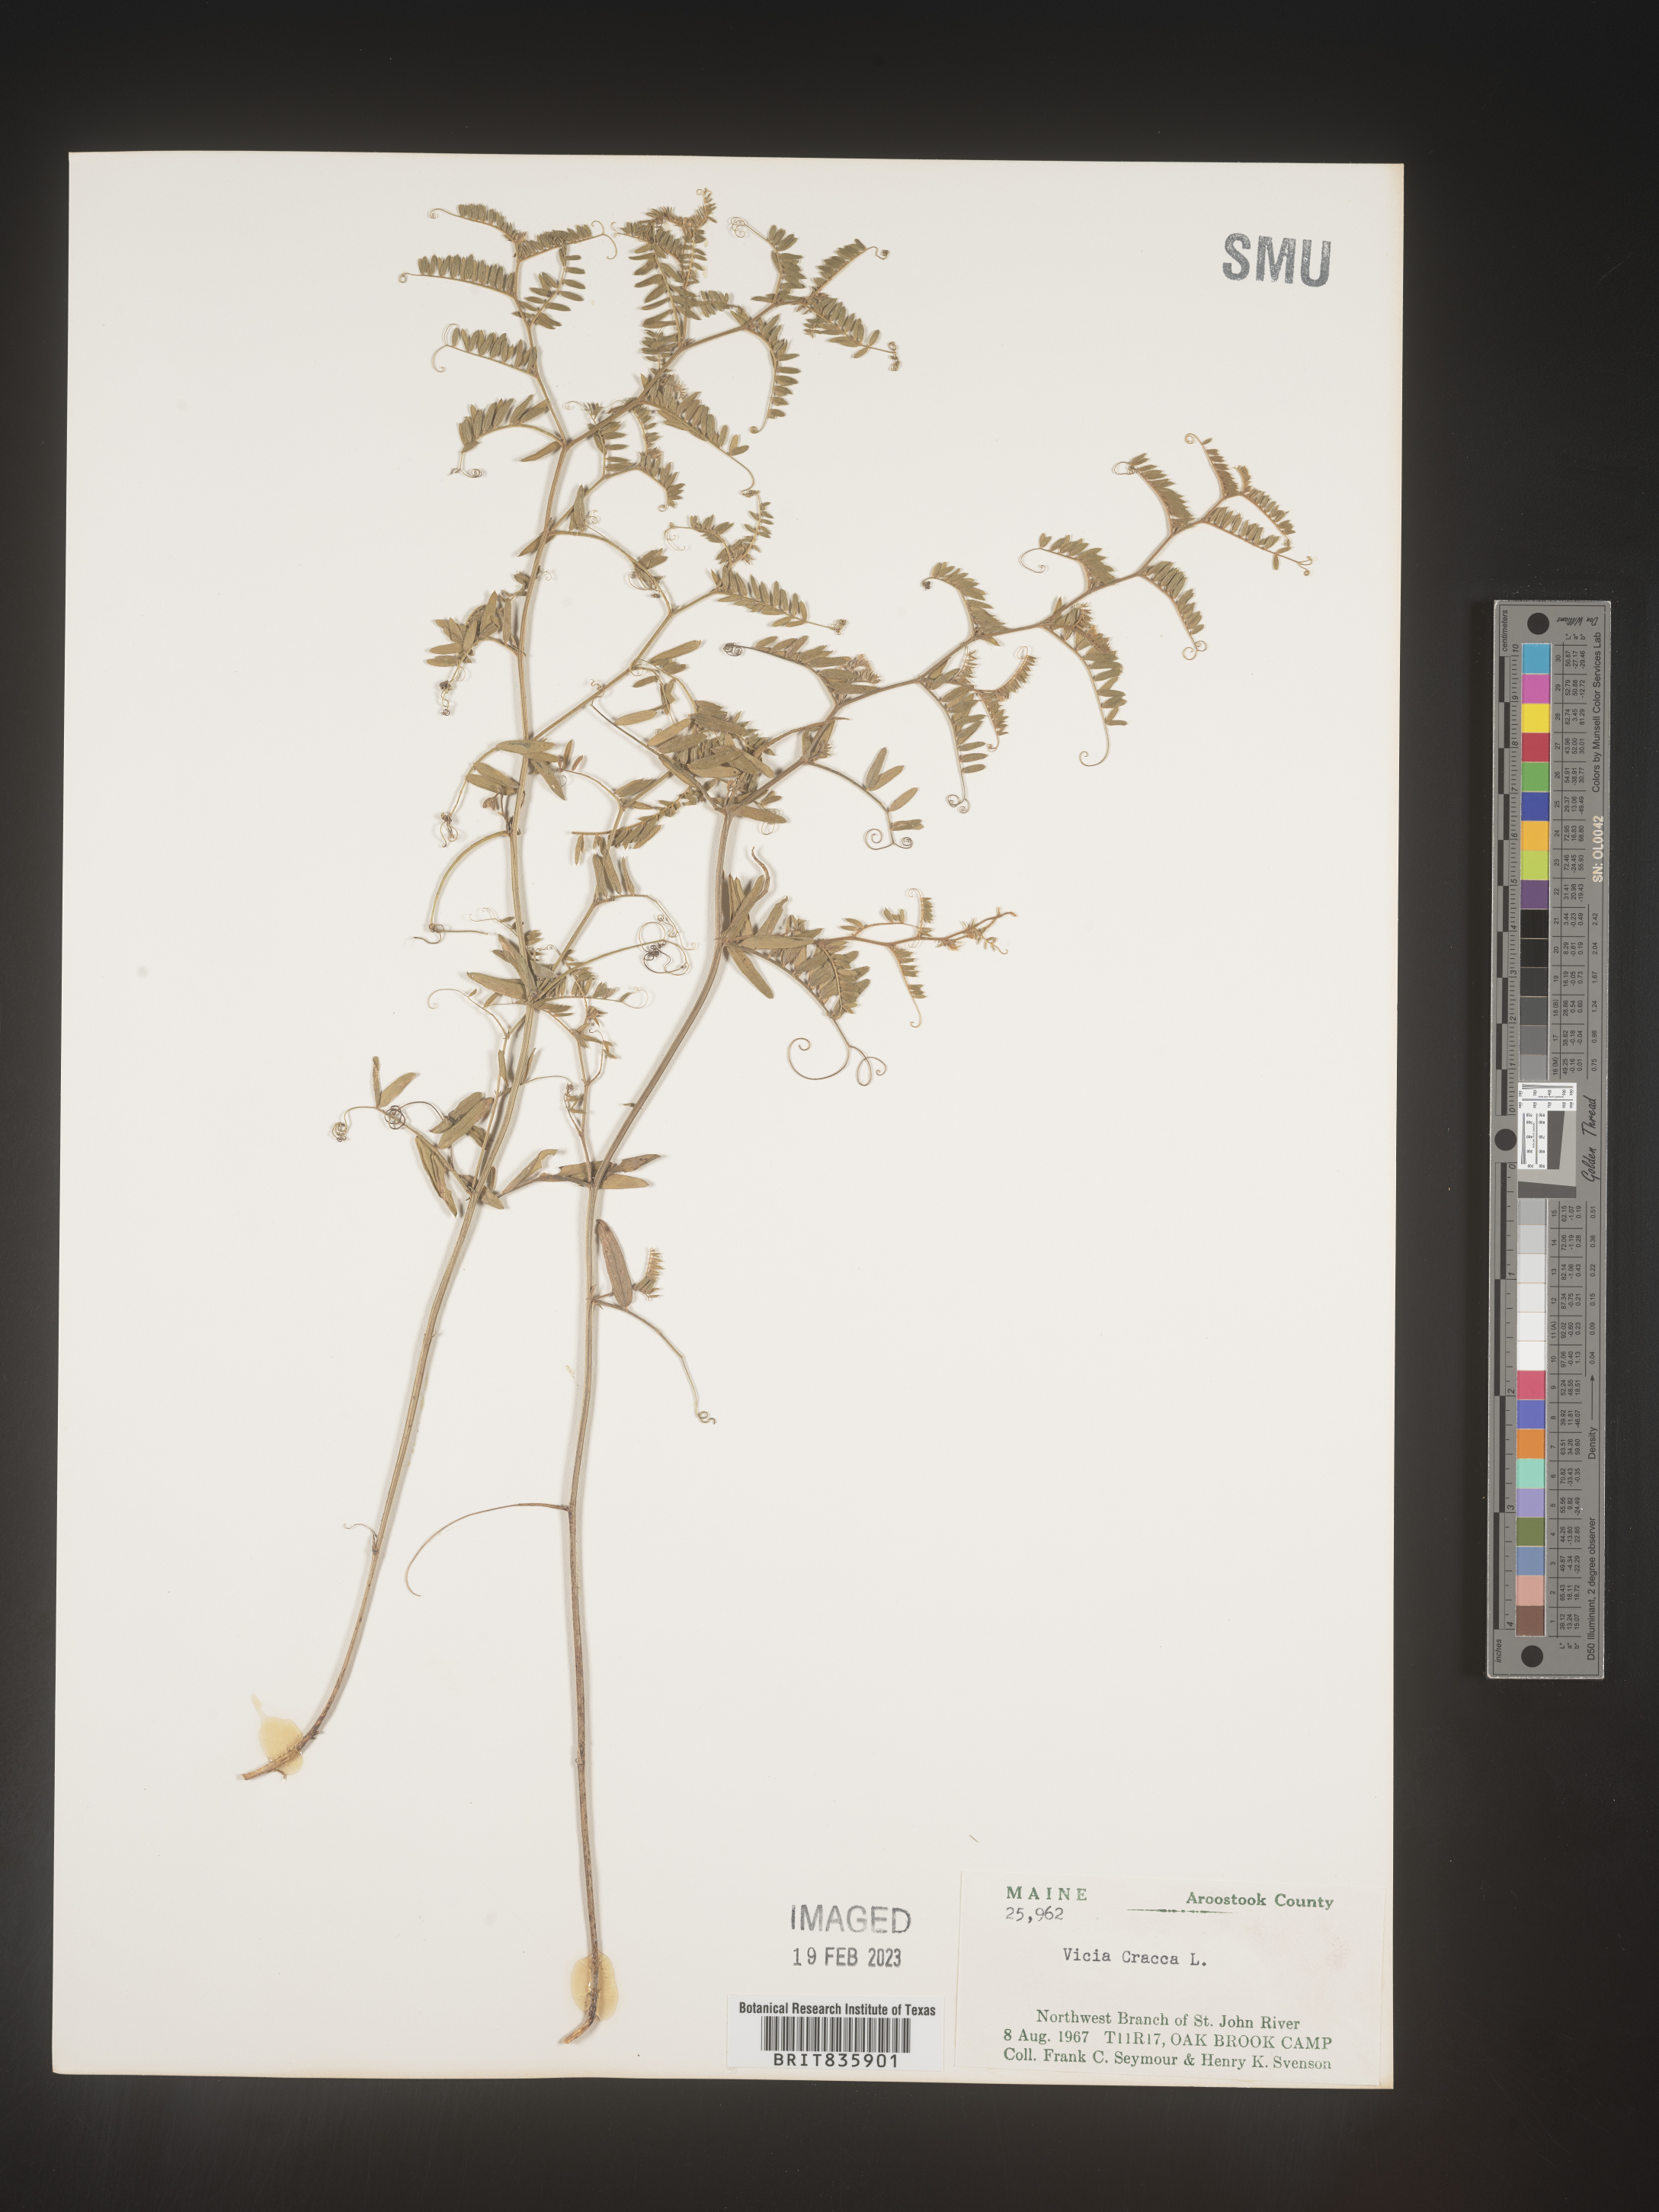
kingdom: Plantae
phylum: Tracheophyta
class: Magnoliopsida
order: Fabales
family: Fabaceae
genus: Vicia
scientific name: Vicia cracca
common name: Bird vetch
